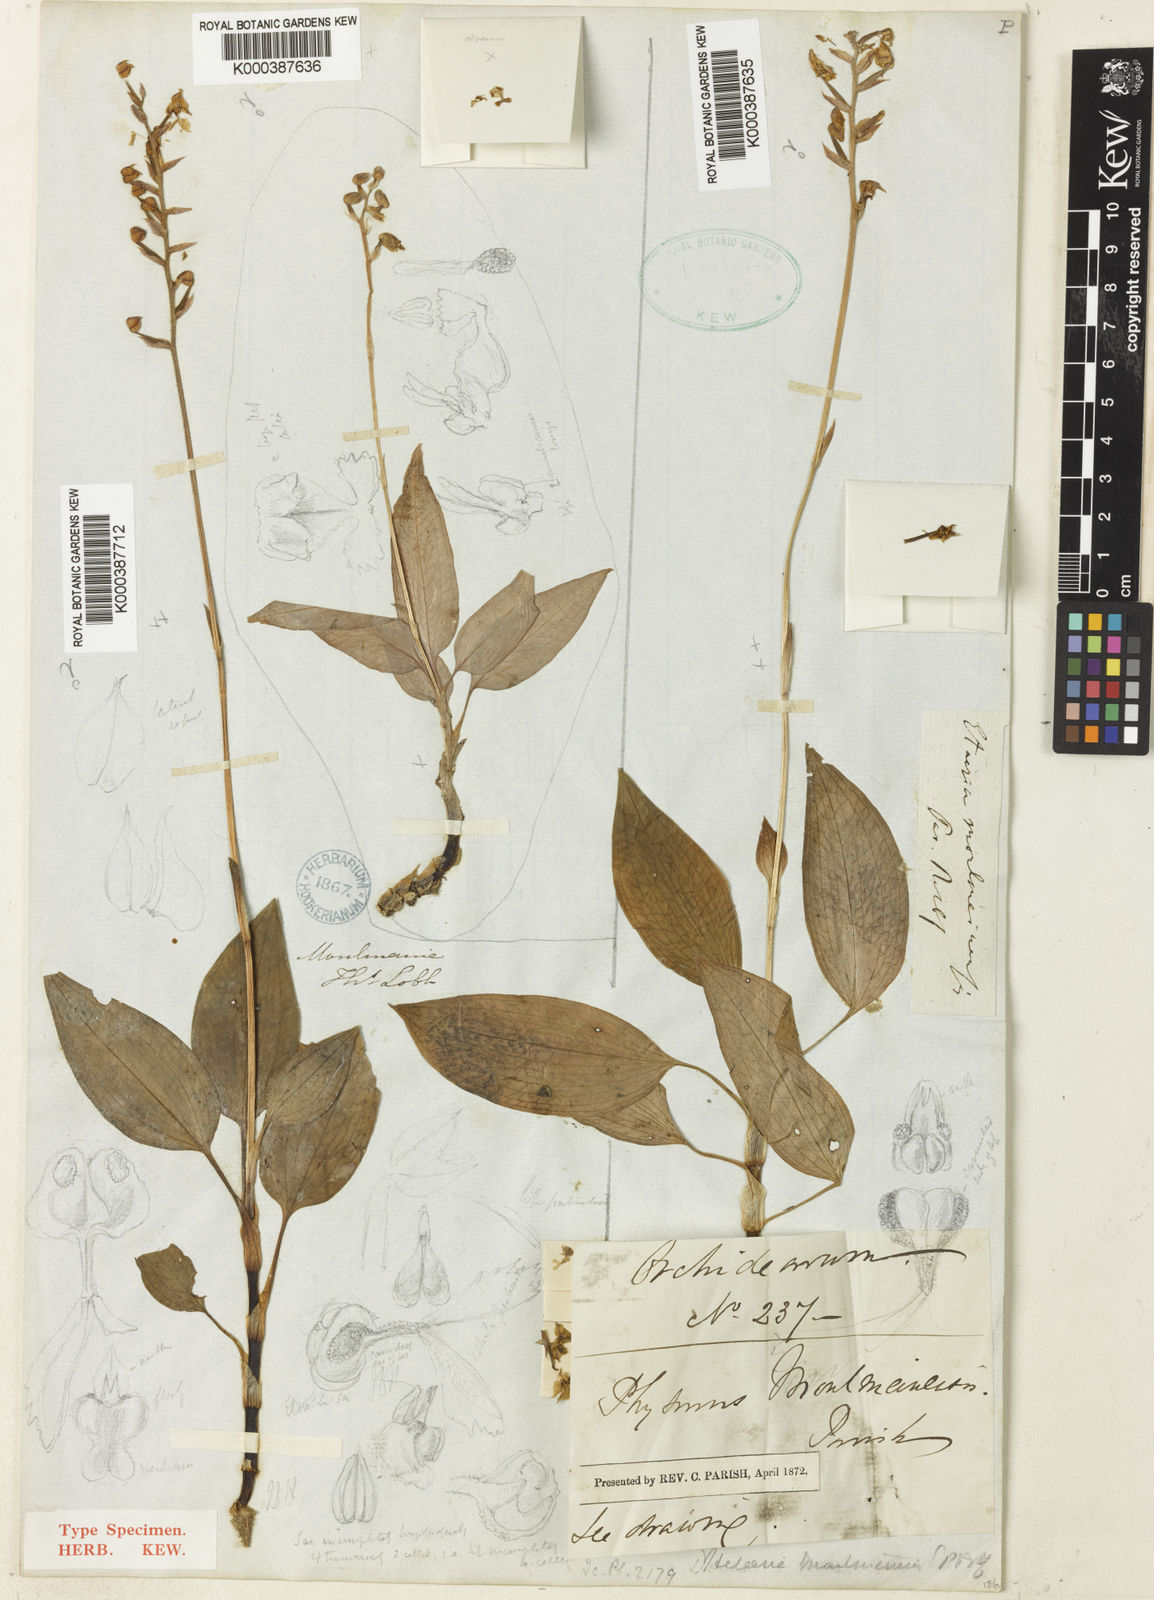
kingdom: Plantae
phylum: Tracheophyta
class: Liliopsida
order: Asparagales
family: Orchidaceae
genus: Rhomboda
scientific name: Rhomboda moulmeinensis
